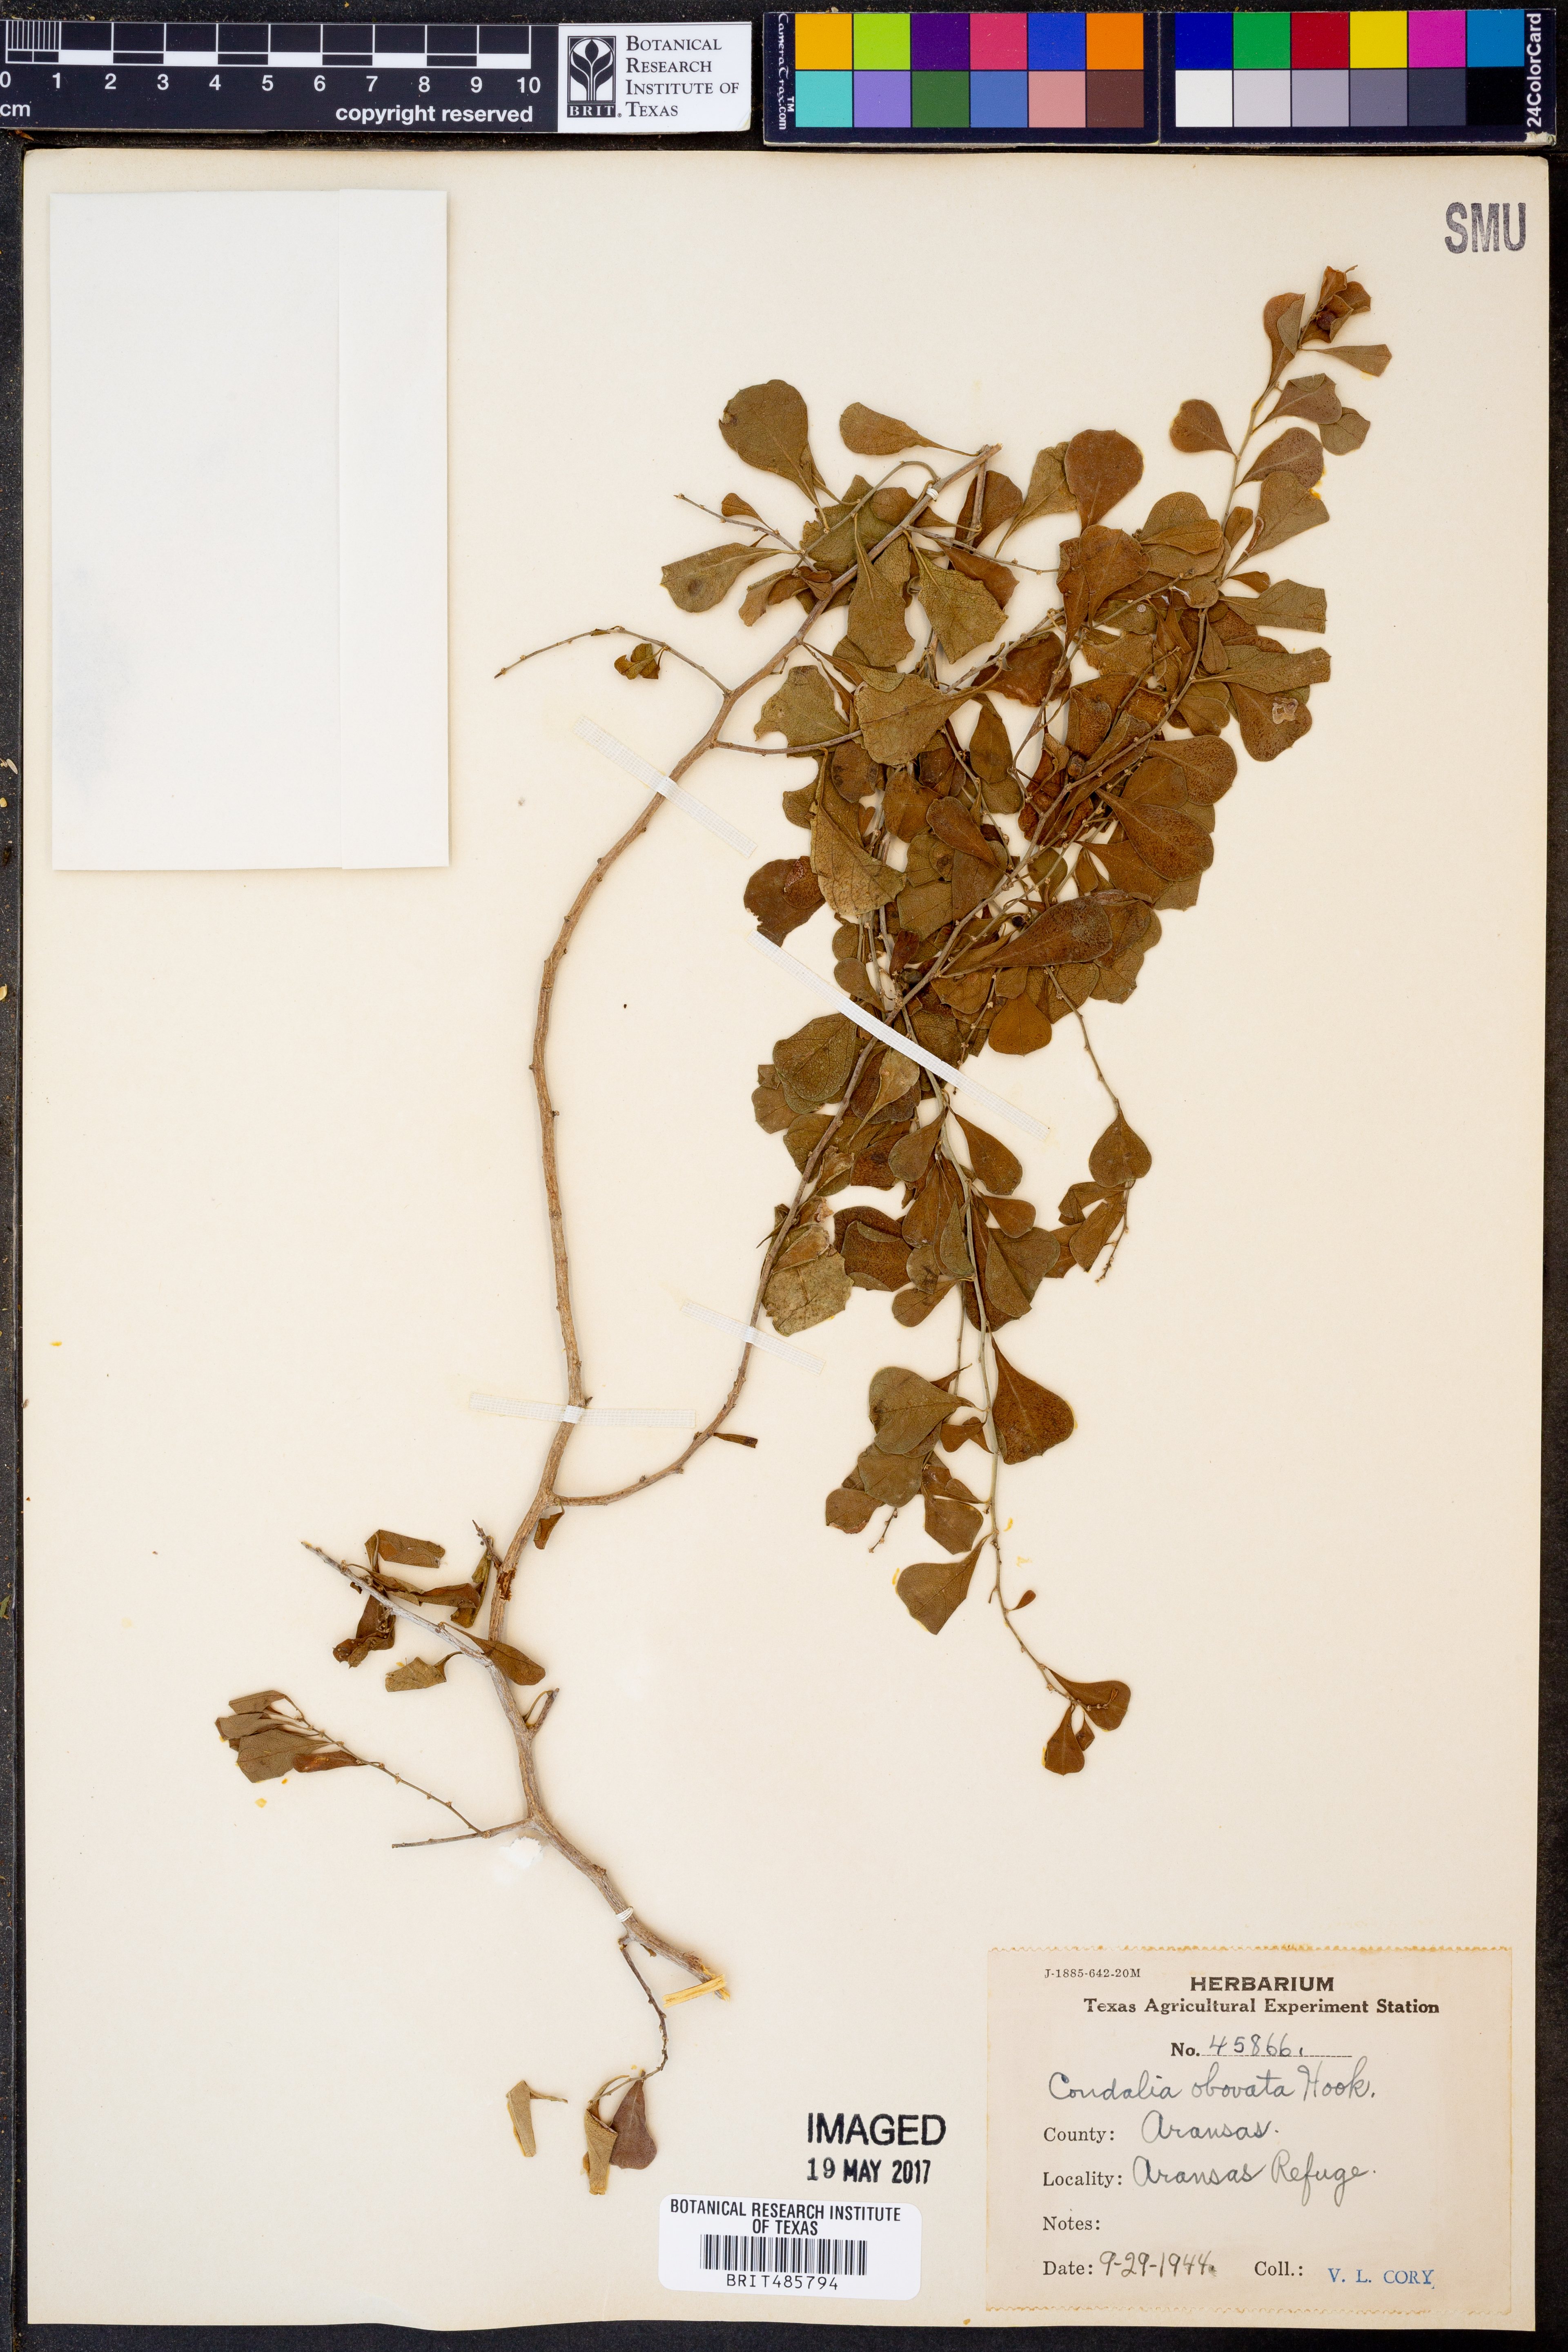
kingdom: Plantae
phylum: Tracheophyta
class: Magnoliopsida
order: Rosales
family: Rhamnaceae
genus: Condalia
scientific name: Condalia hookeri
